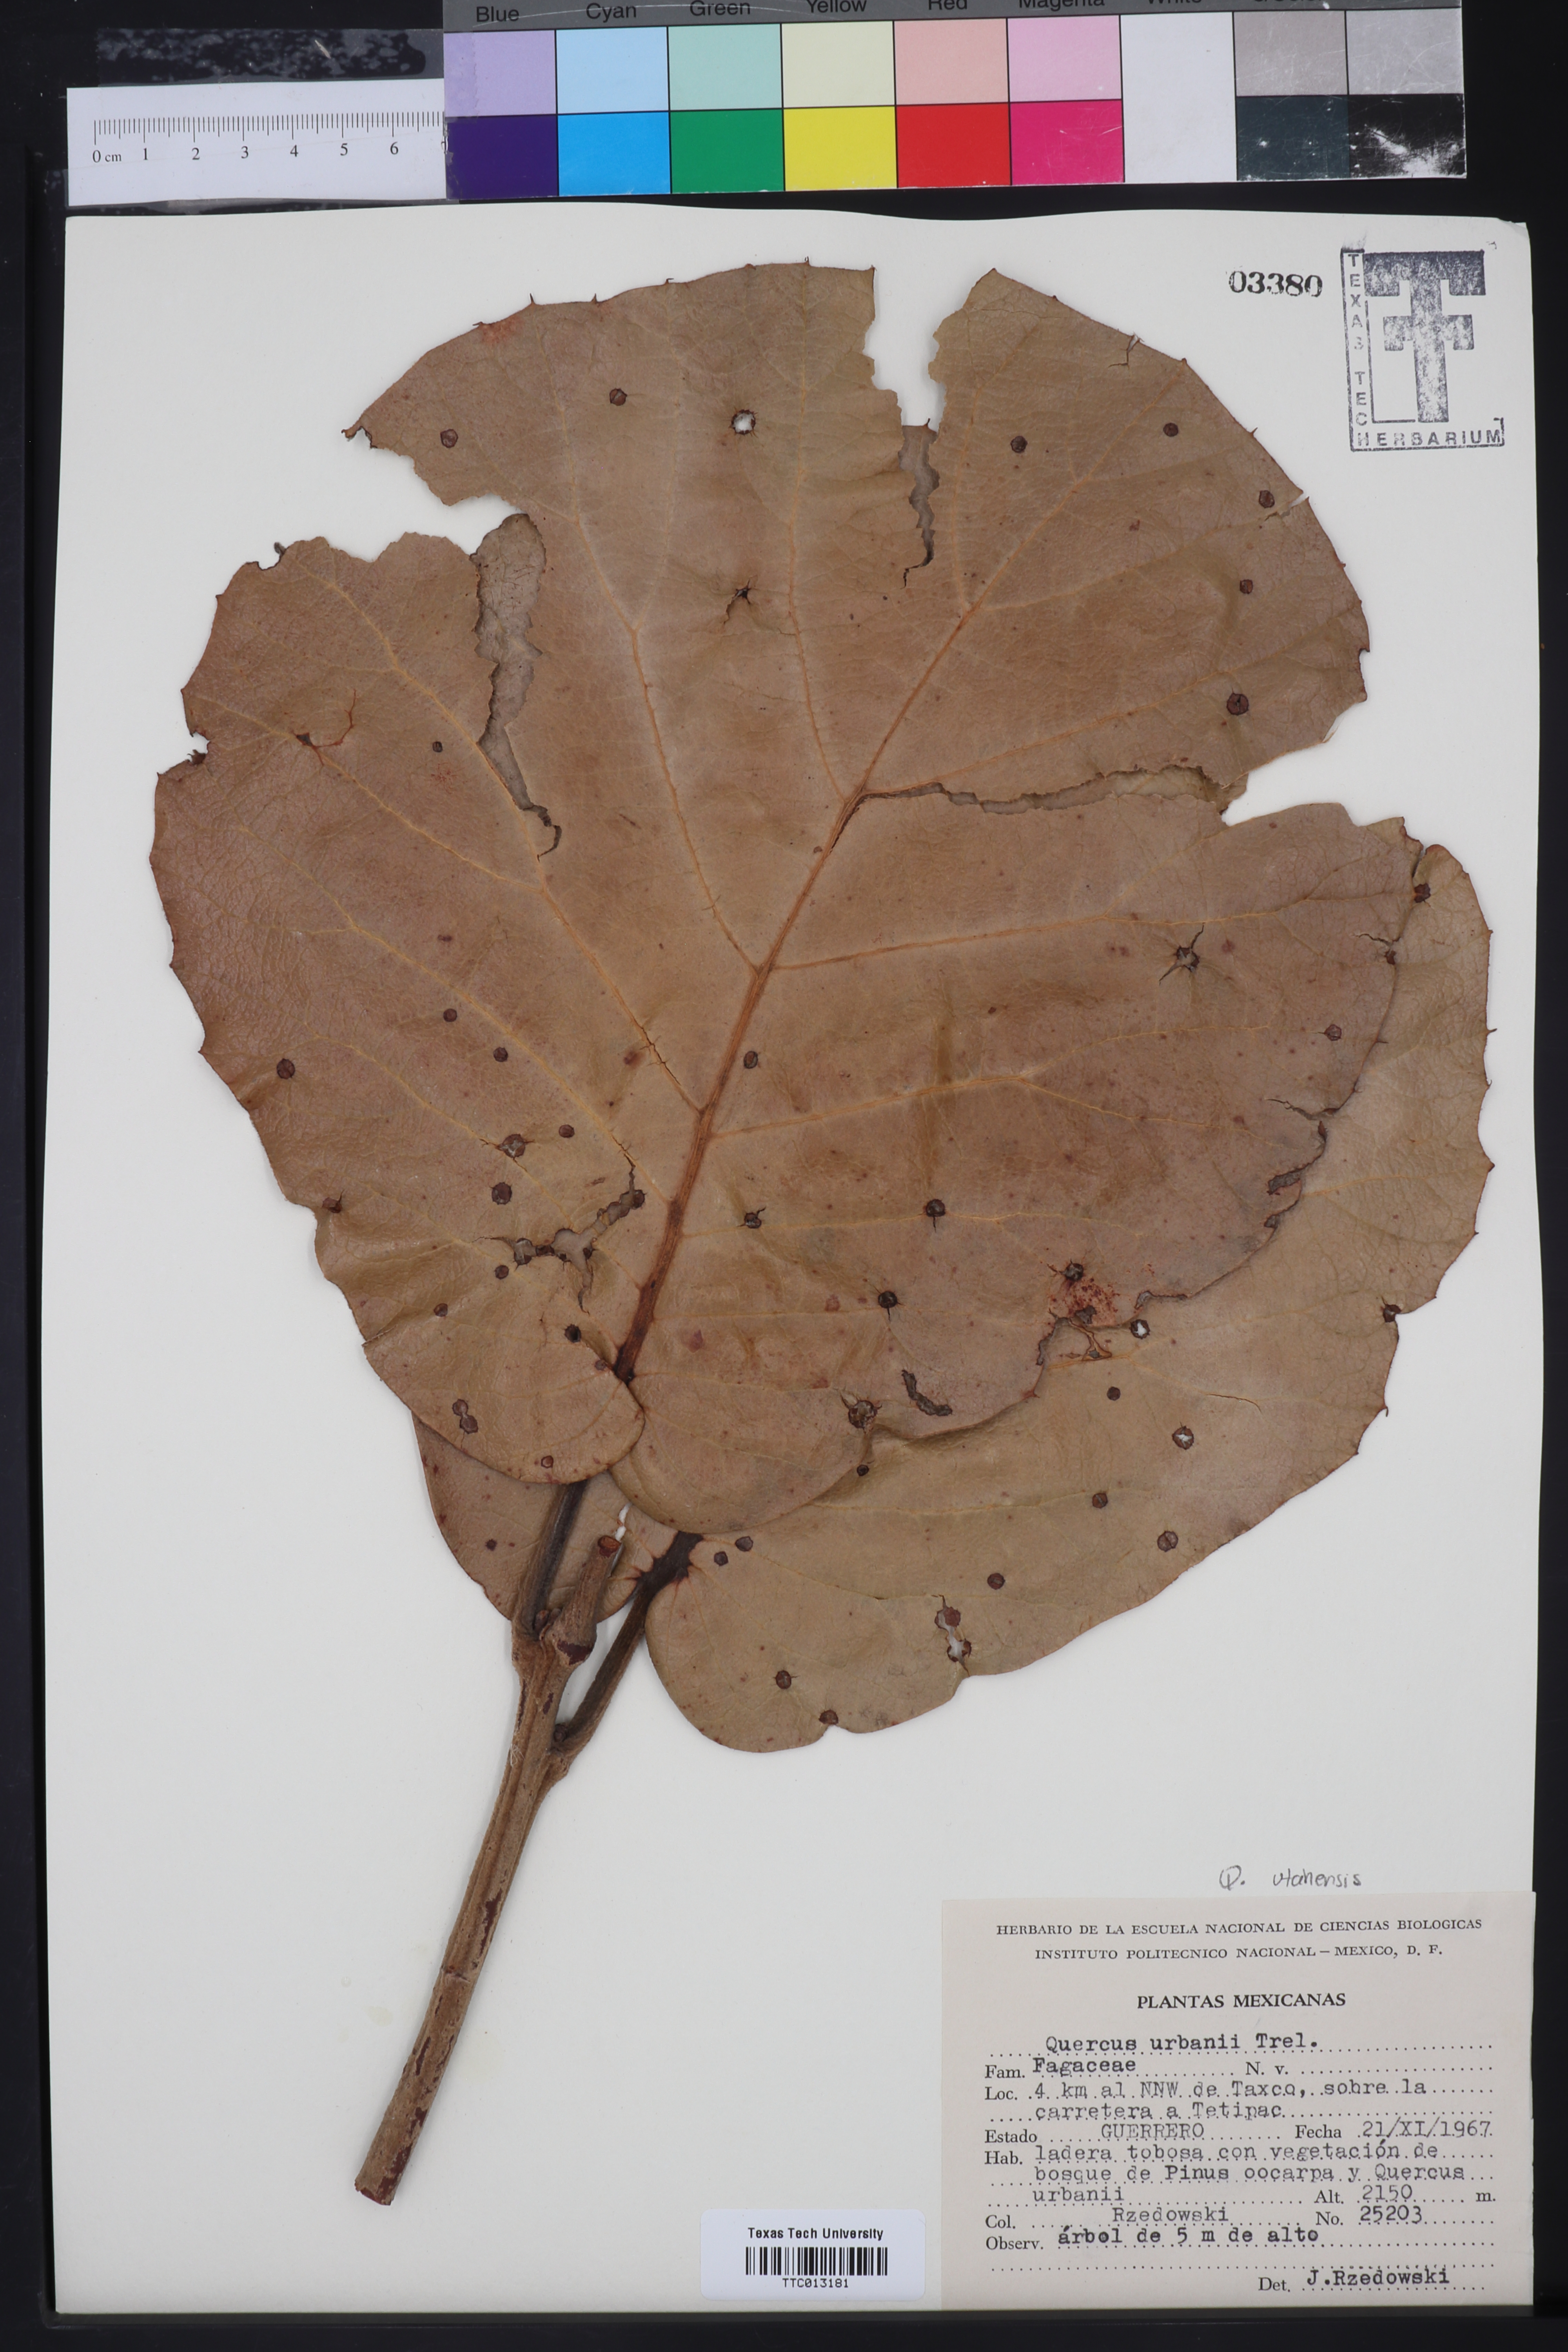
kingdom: Plantae
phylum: Tracheophyta
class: Magnoliopsida
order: Fagales
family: Fagaceae
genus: Quercus
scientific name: Quercus urbani
